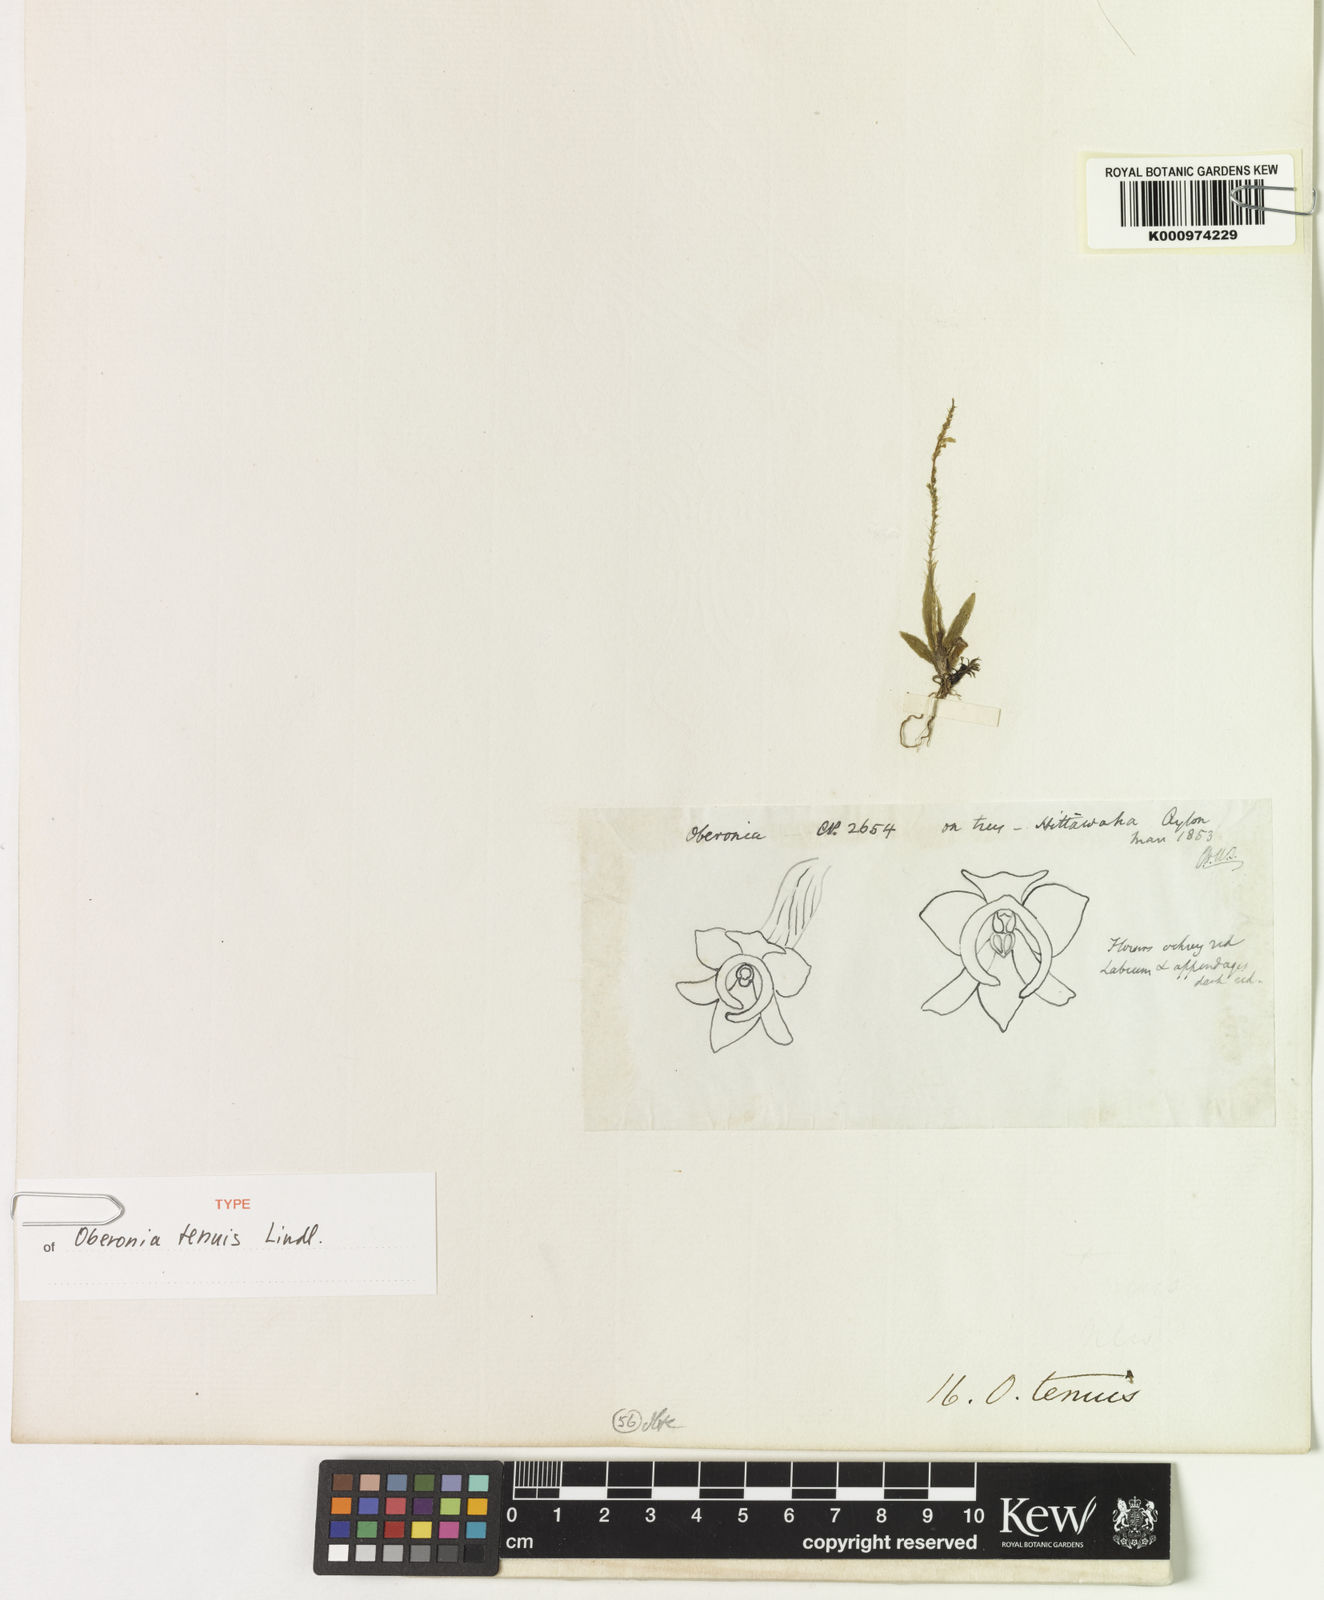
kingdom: Plantae
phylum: Tracheophyta
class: Liliopsida
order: Asparagales
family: Orchidaceae
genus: Oberonia
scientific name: Oberonia bicornis
